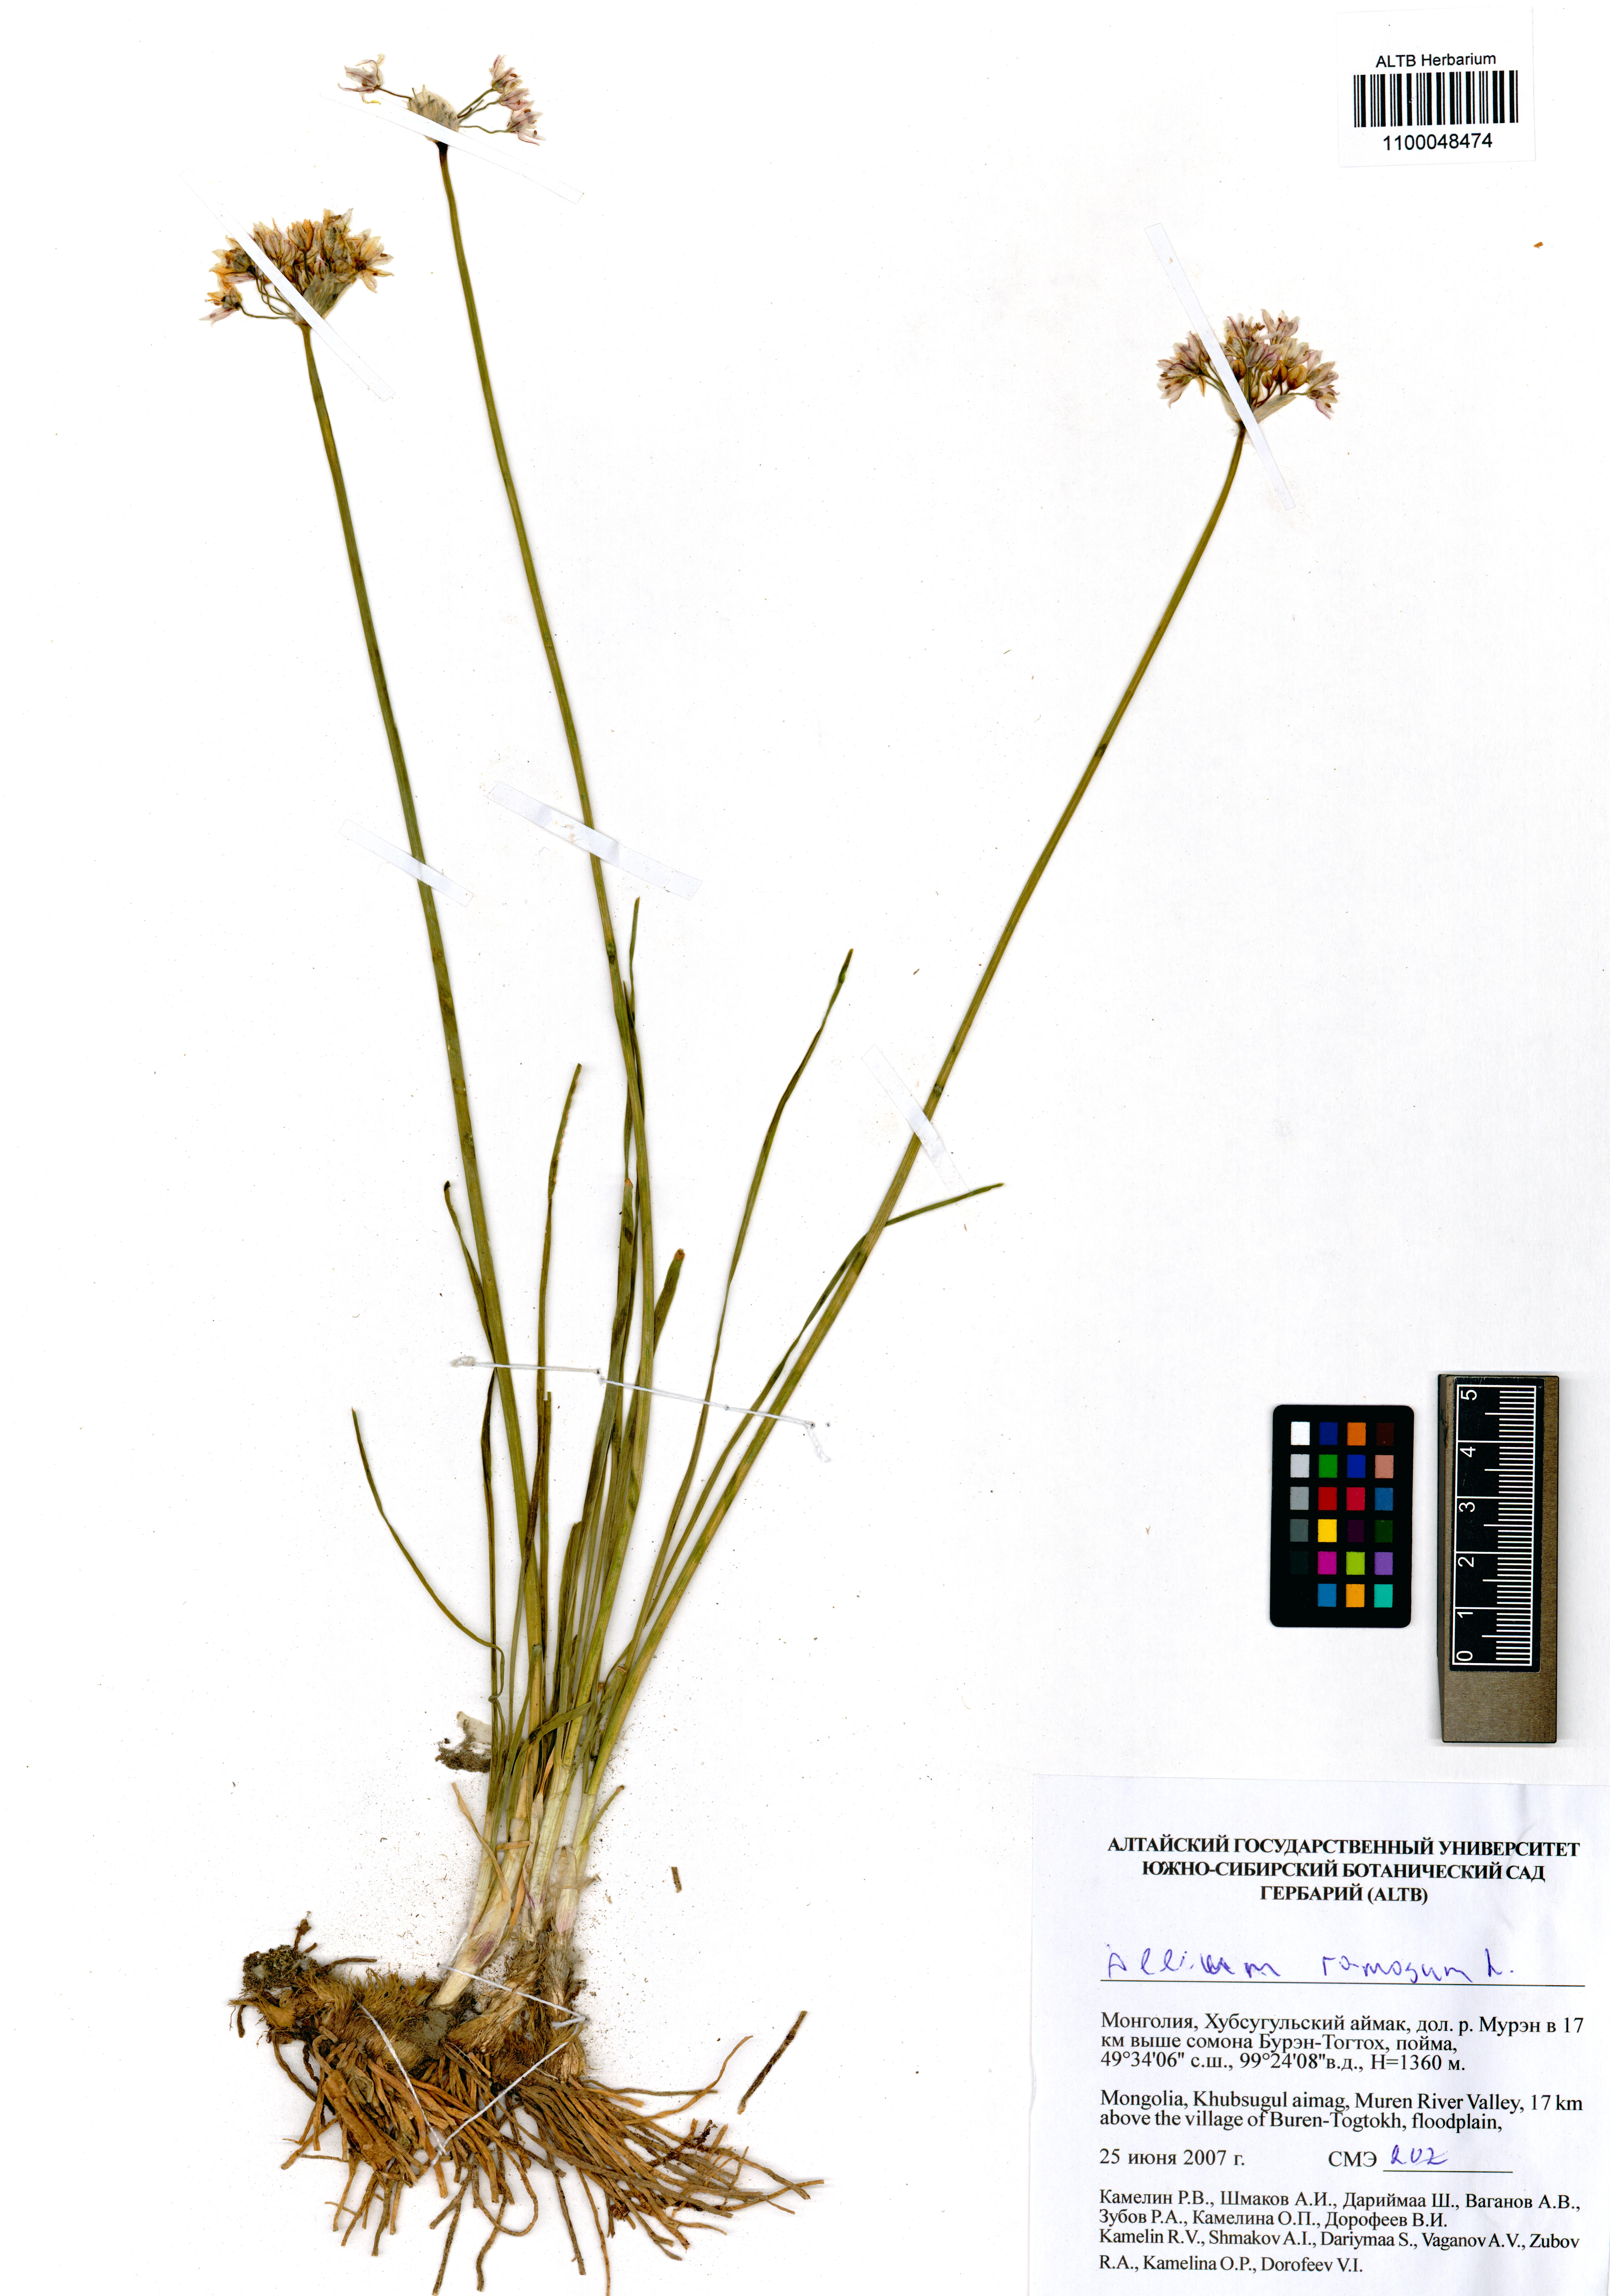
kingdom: Plantae
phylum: Tracheophyta
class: Liliopsida
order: Asparagales
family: Amaryllidaceae
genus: Allium
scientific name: Allium ramosum
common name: Fragrant garlic
